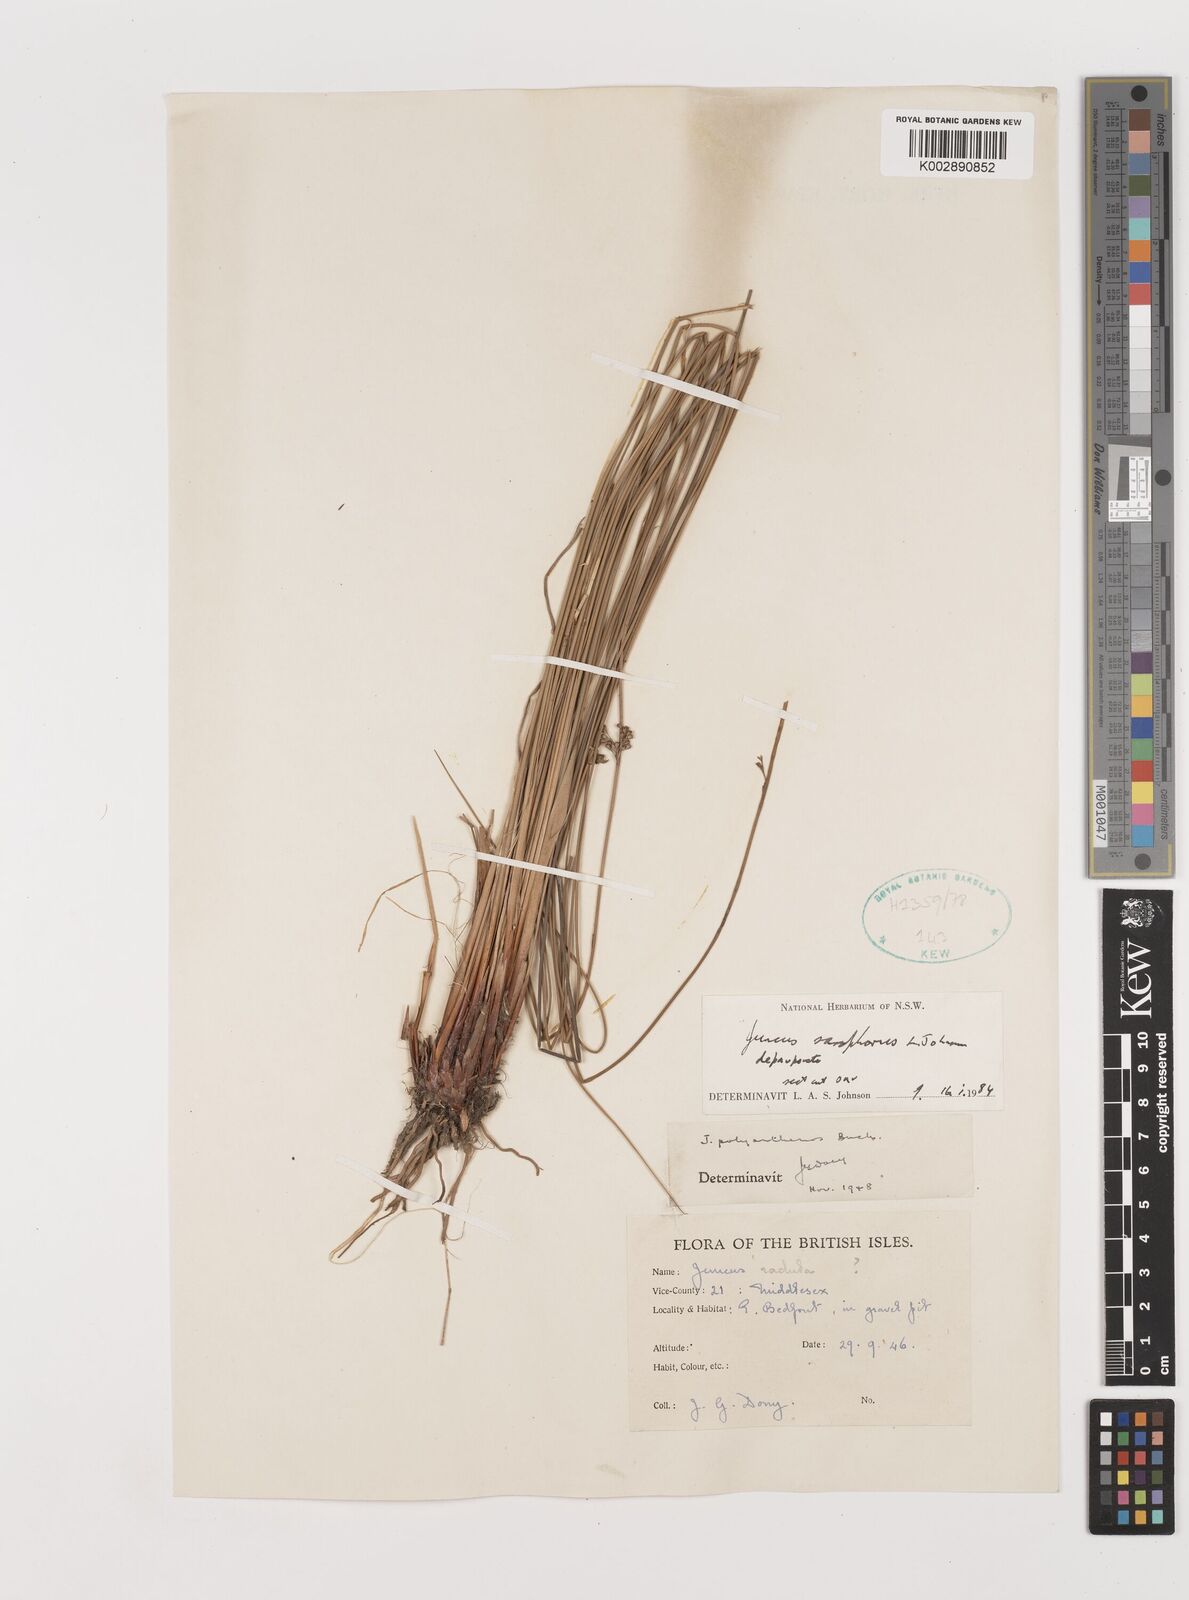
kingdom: Plantae
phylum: Tracheophyta
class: Liliopsida
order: Poales
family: Juncaceae
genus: Juncus
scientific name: Juncus sarophorus
